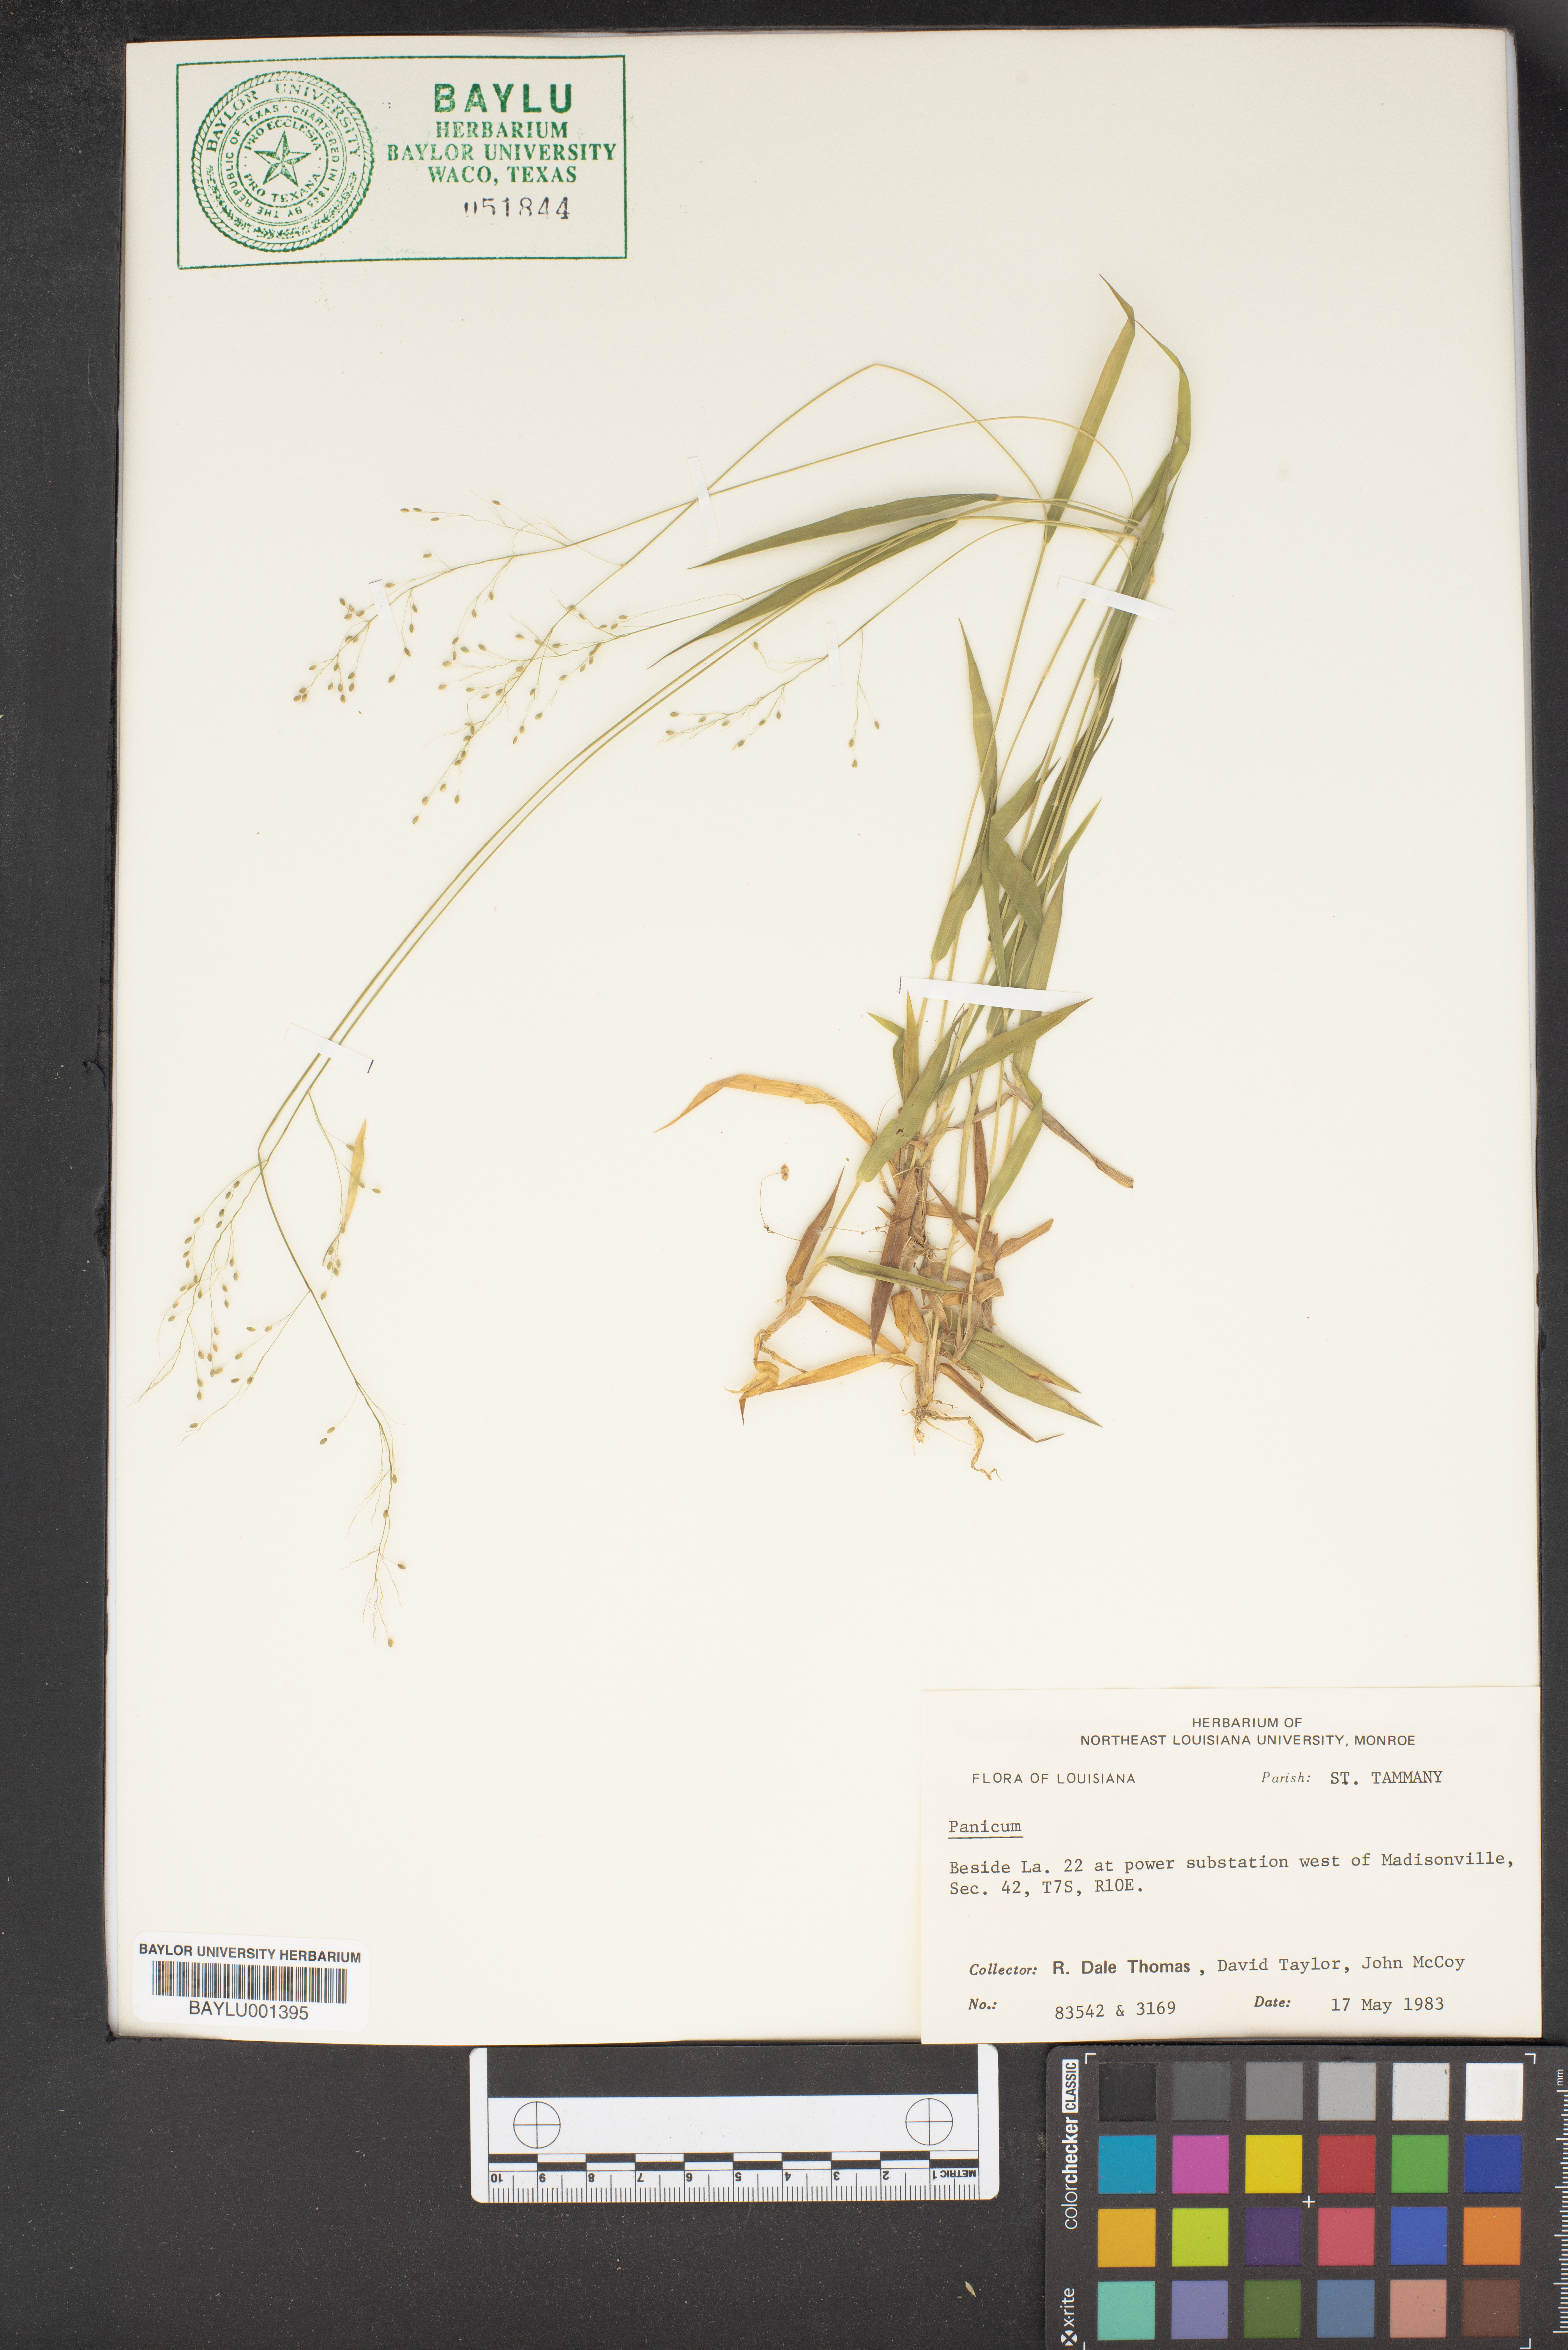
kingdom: Plantae
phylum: Tracheophyta
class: Liliopsida
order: Poales
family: Poaceae
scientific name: Poaceae
